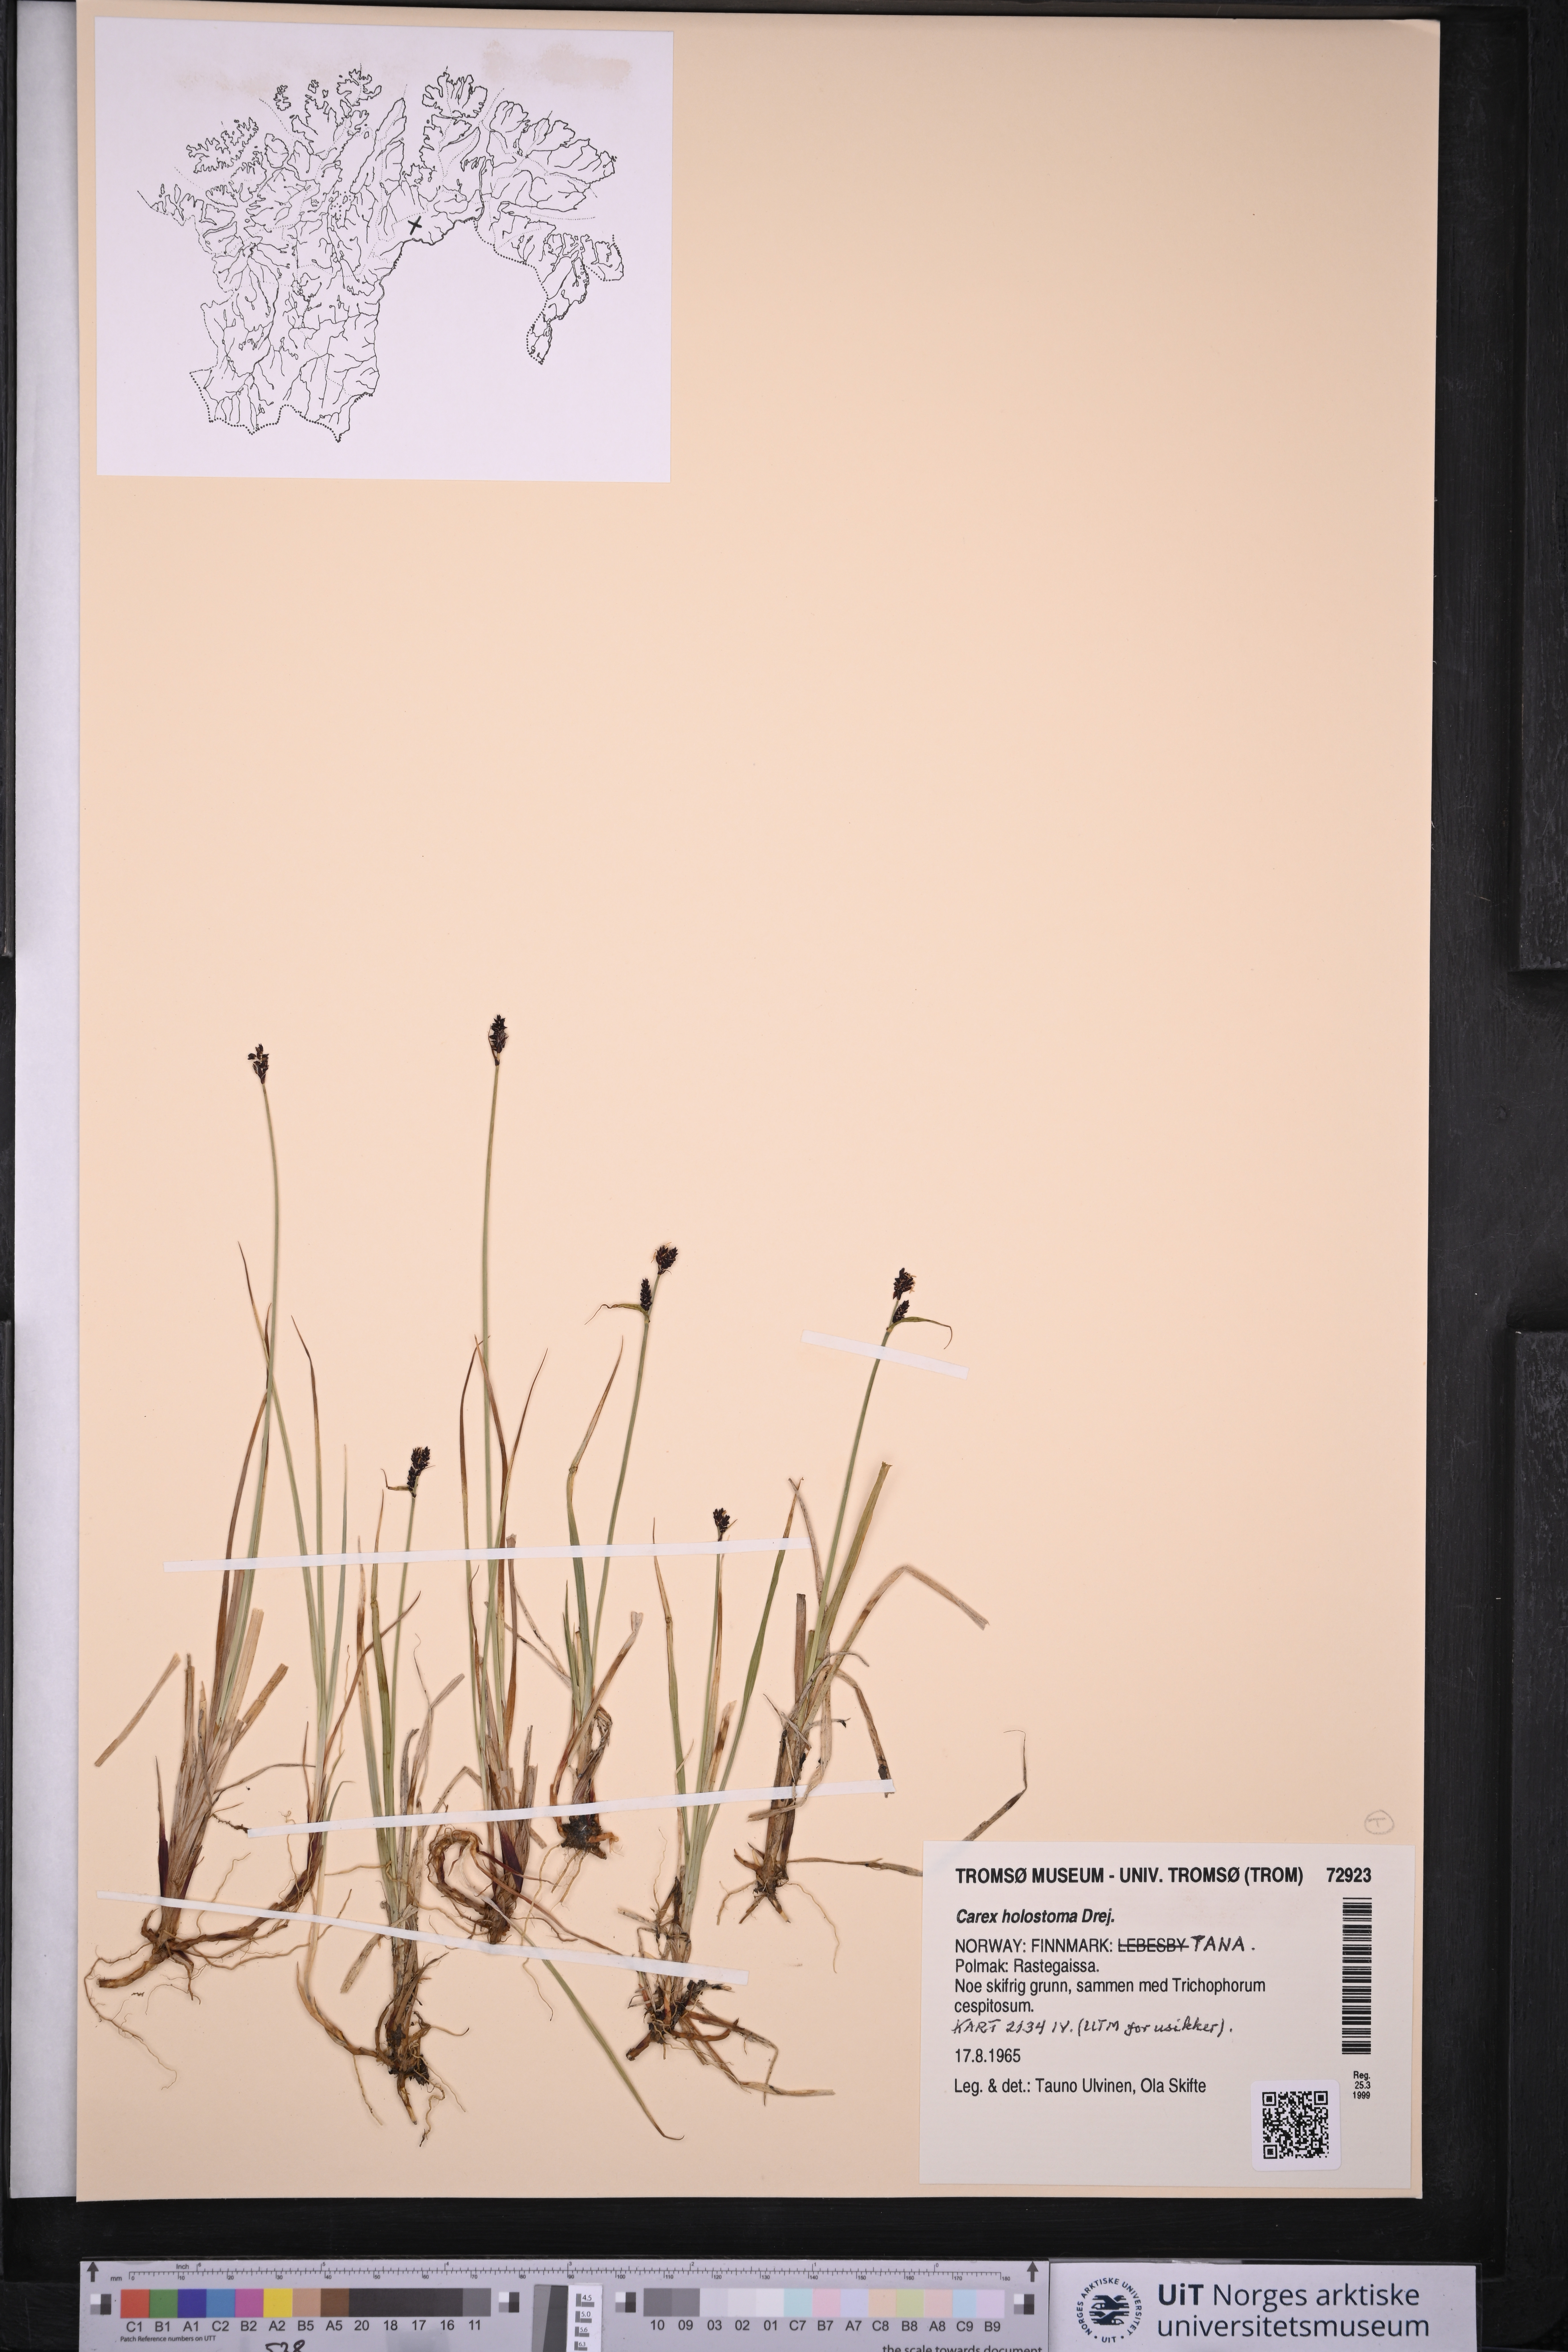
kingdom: Plantae
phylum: Tracheophyta
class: Liliopsida
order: Poales
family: Cyperaceae
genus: Carex
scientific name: Carex holostoma
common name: Arctic marsh sedge
